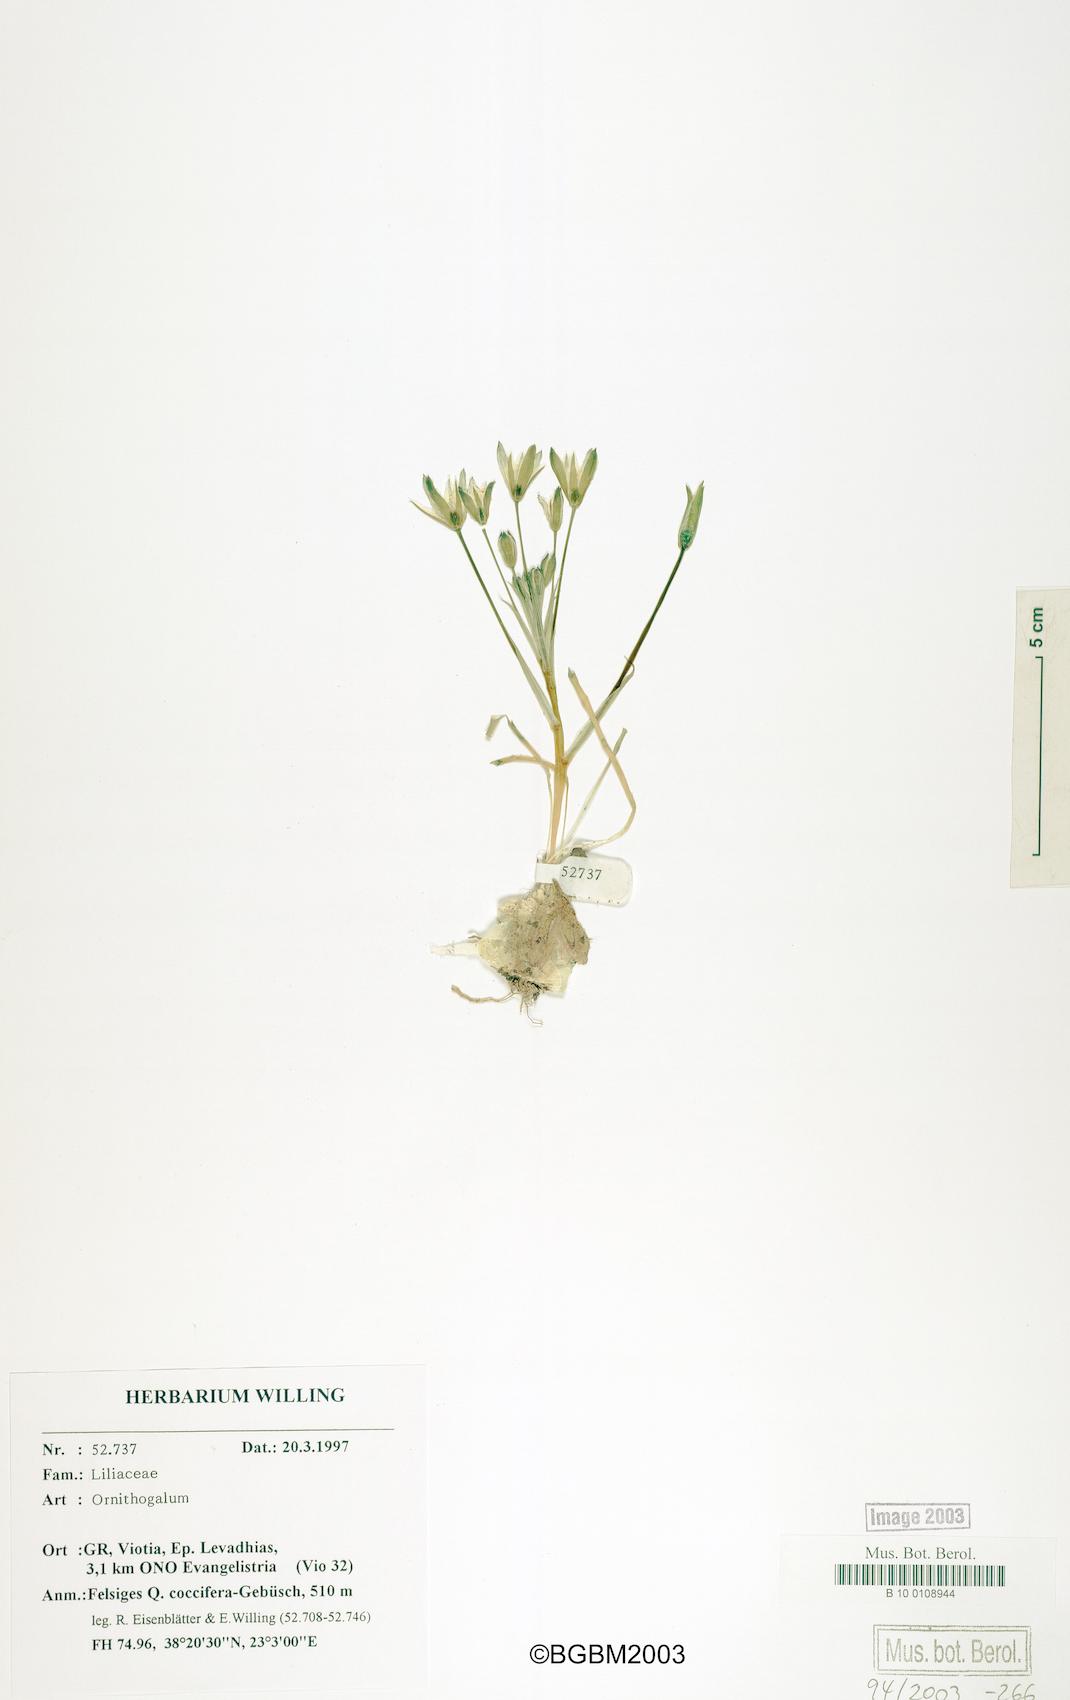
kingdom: Plantae
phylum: Tracheophyta
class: Liliopsida
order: Asparagales
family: Asparagaceae
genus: Ornithogalum
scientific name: Ornithogalum
